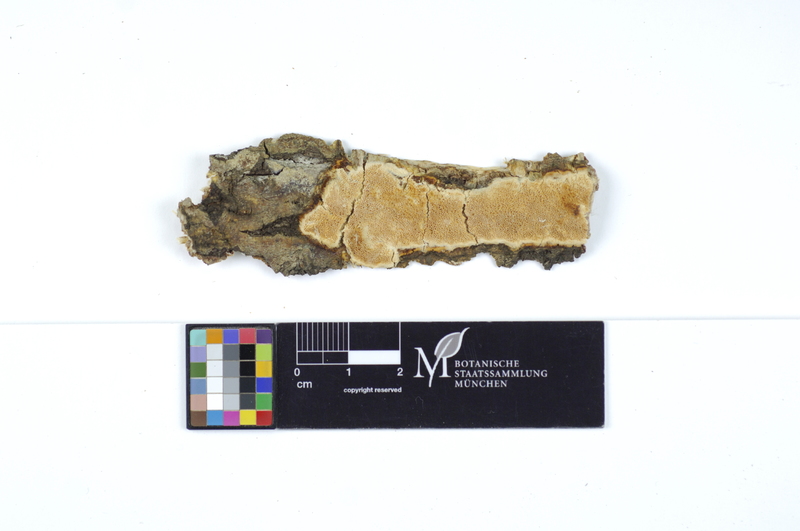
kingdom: Plantae
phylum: Tracheophyta
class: Magnoliopsida
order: Malpighiales
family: Salicaceae
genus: Salix
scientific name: Salix caprea
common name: Goat willow
